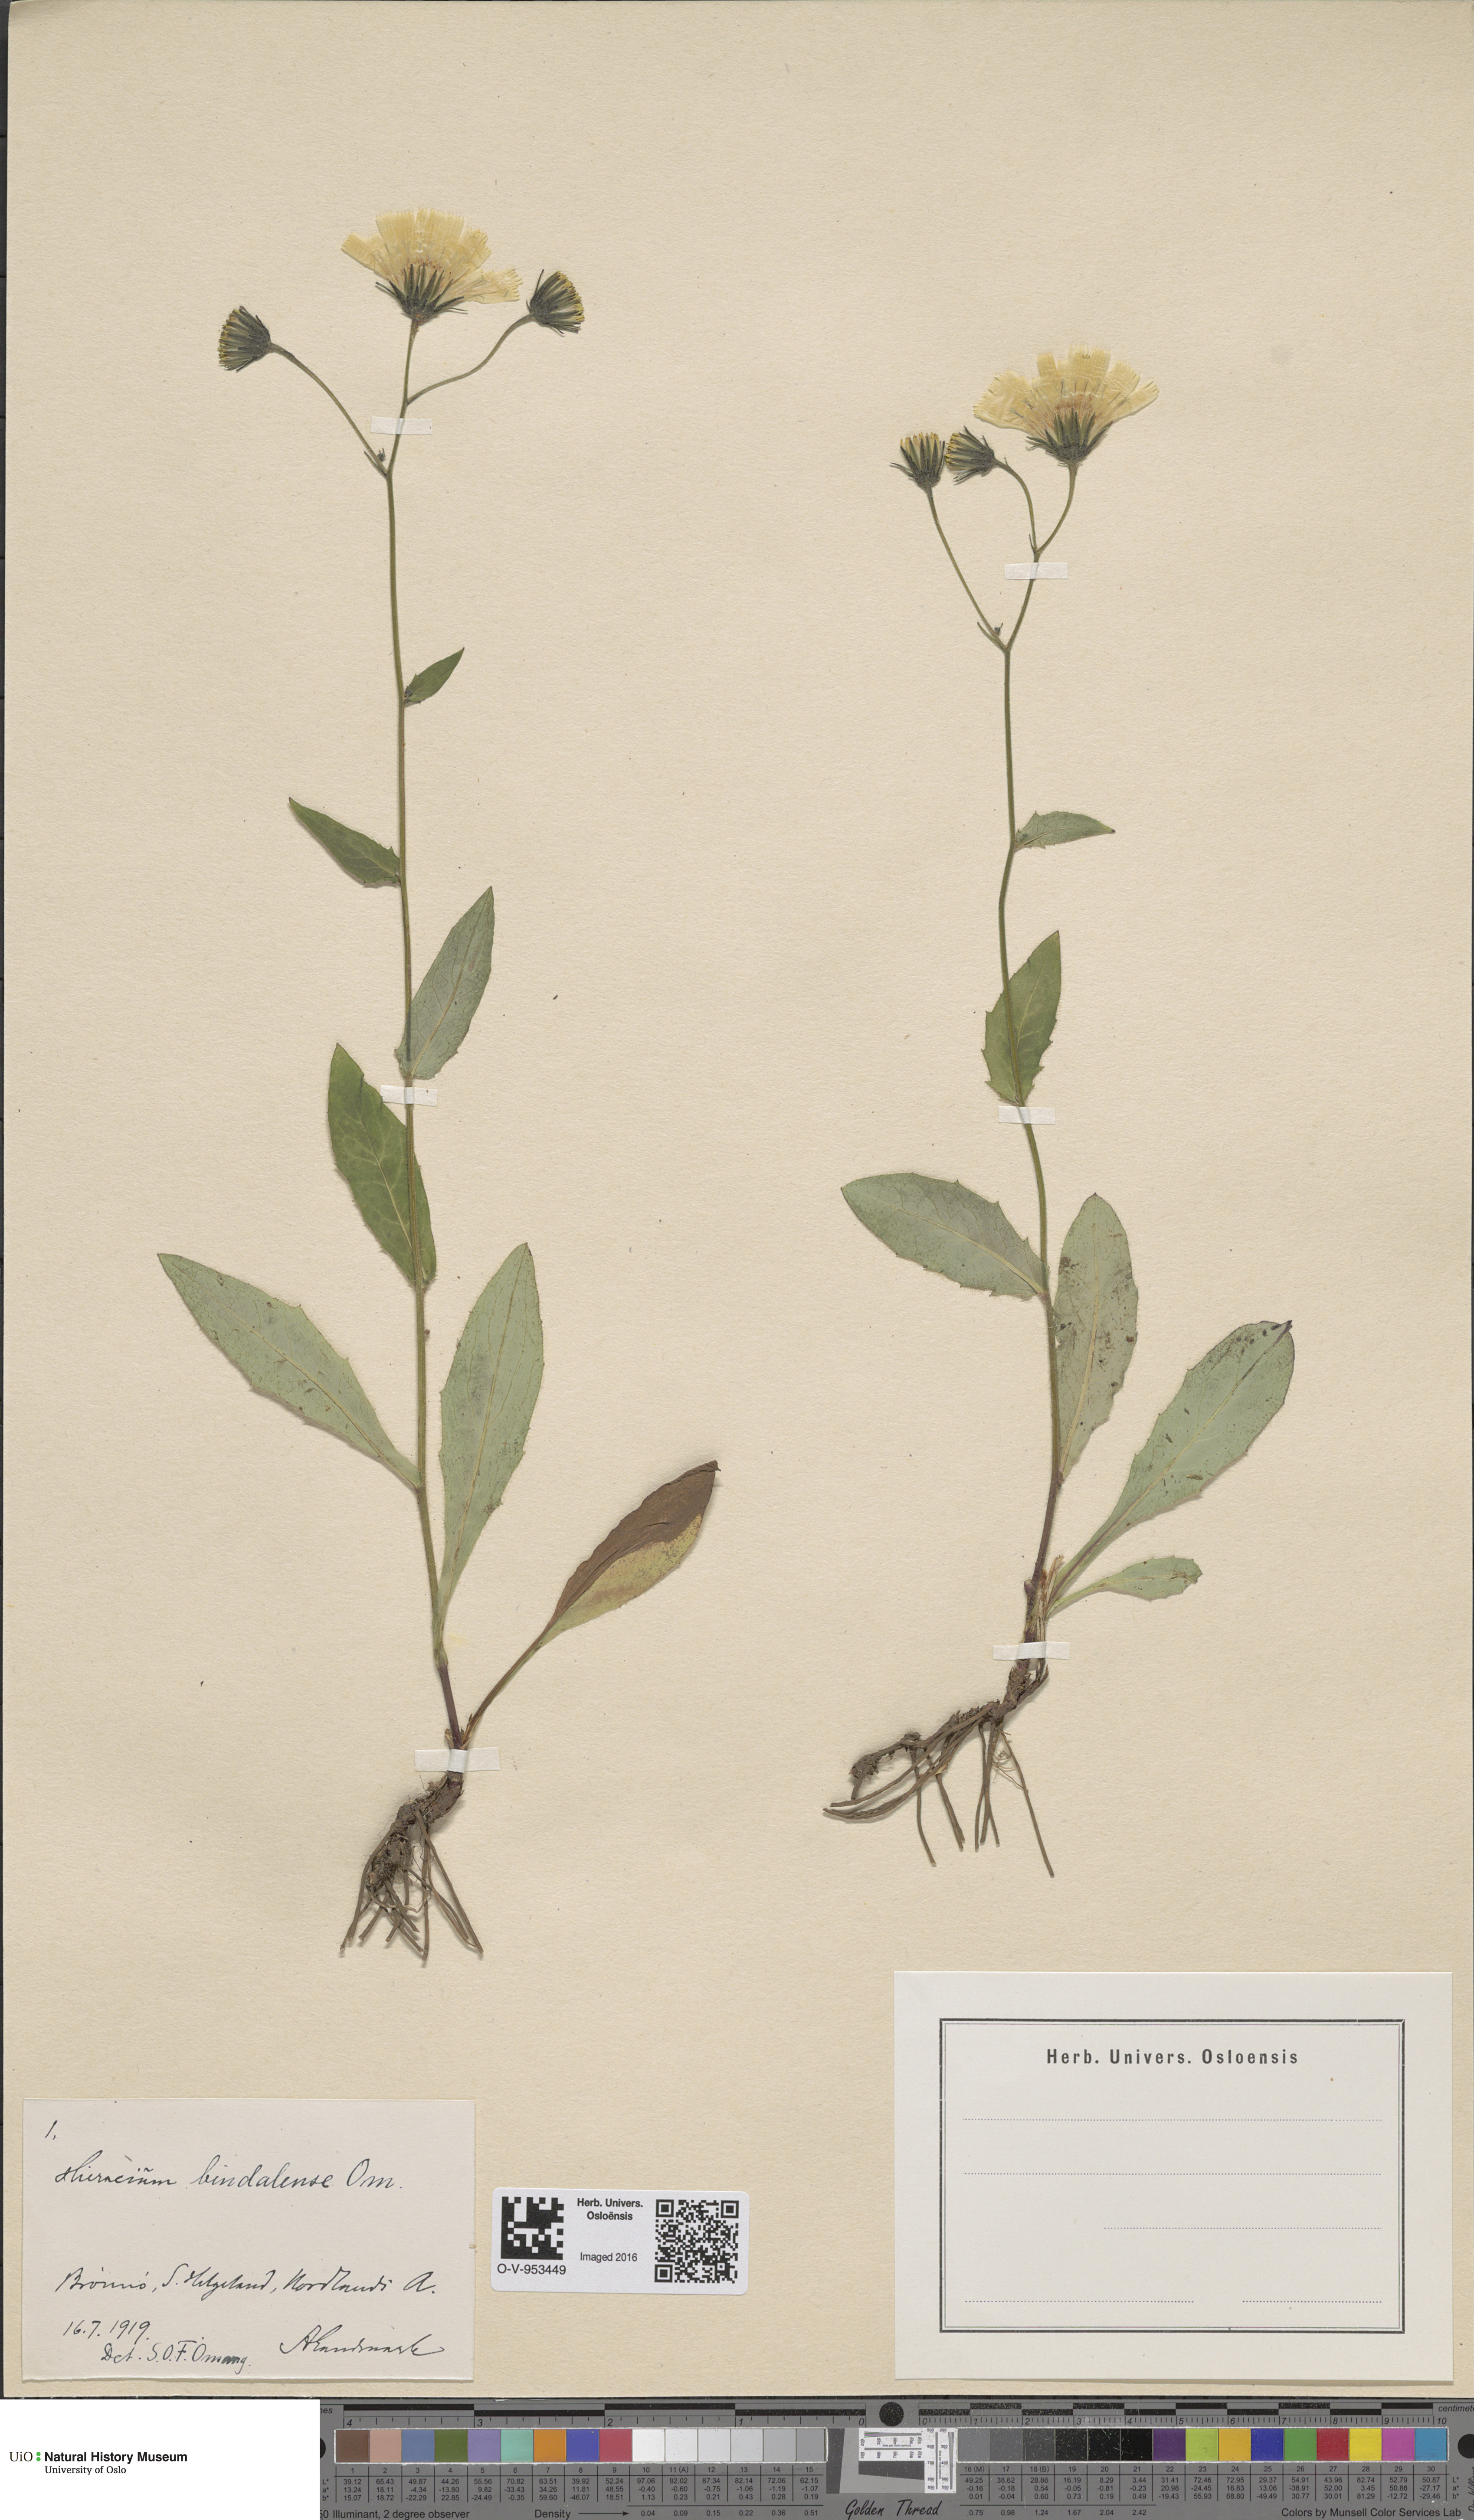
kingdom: Plantae
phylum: Tracheophyta
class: Magnoliopsida
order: Asterales
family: Asteraceae
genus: Hieracium
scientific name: Hieracium bindalense
